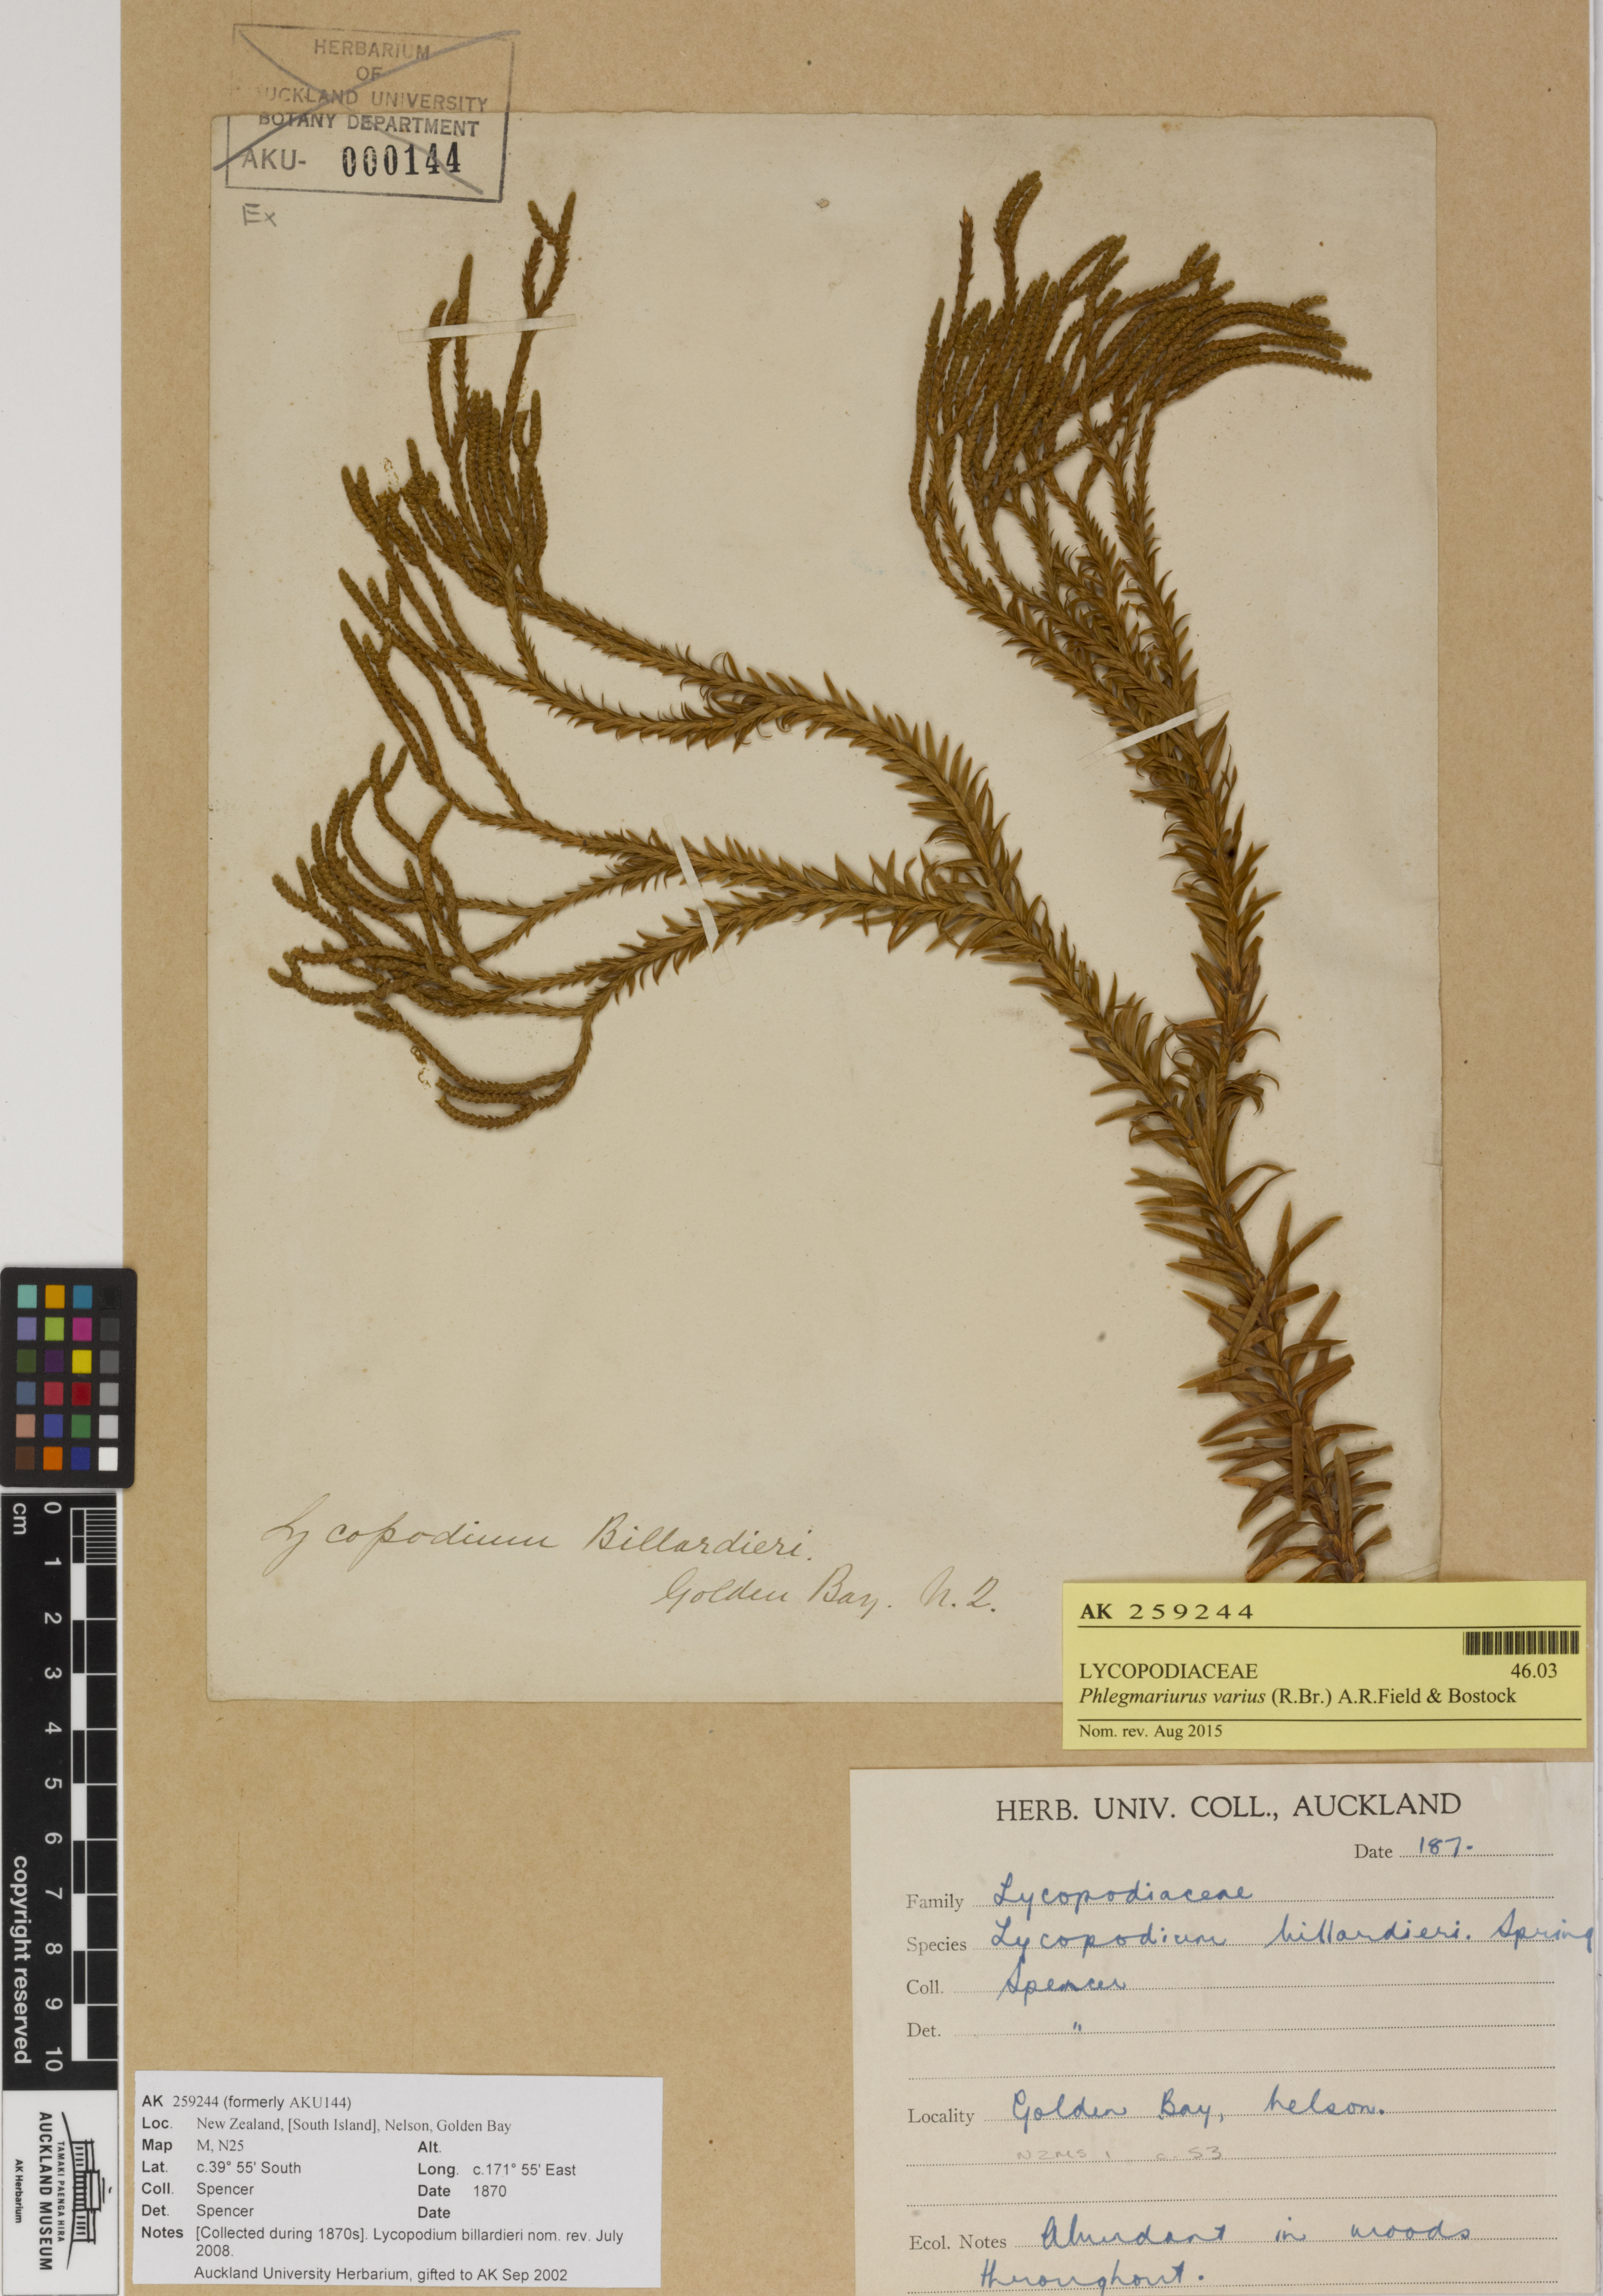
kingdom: Plantae
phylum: Tracheophyta
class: Lycopodiopsida
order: Lycopodiales
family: Lycopodiaceae
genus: Phlegmariurus
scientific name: Phlegmariurus billardierei
